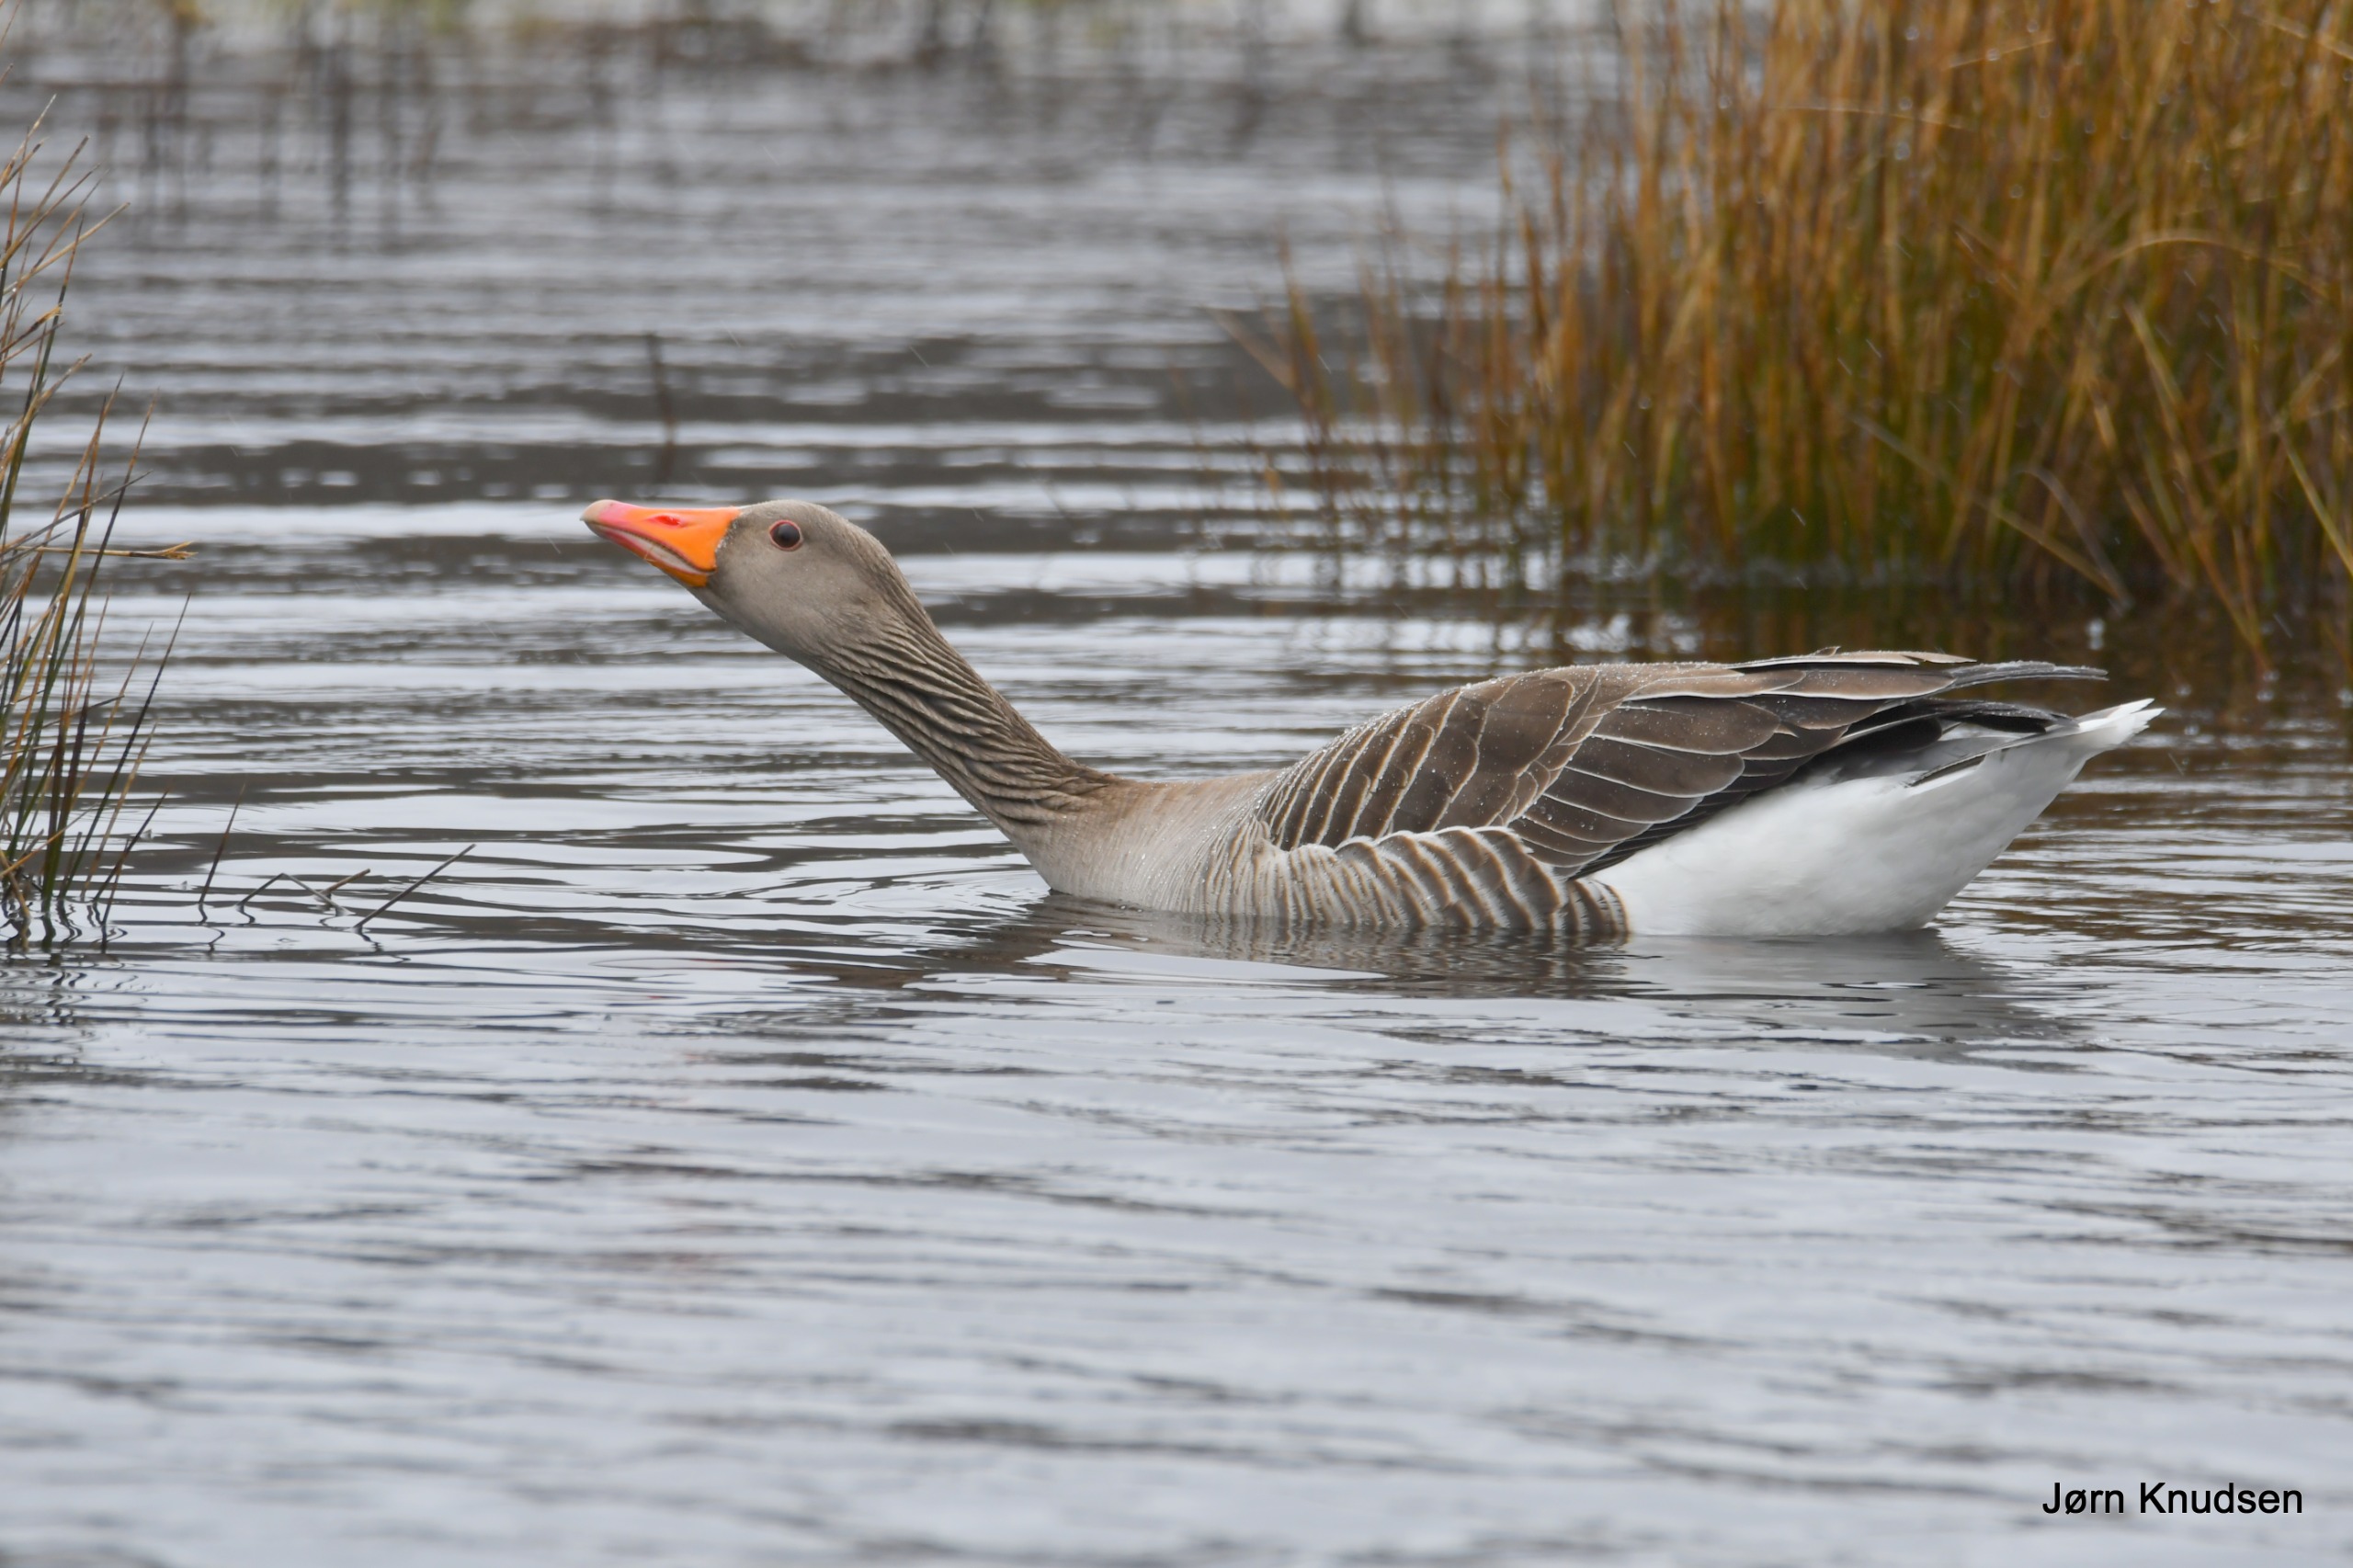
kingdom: Animalia
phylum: Chordata
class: Aves
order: Anseriformes
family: Anatidae
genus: Anser
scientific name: Anser anser
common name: Grågås
